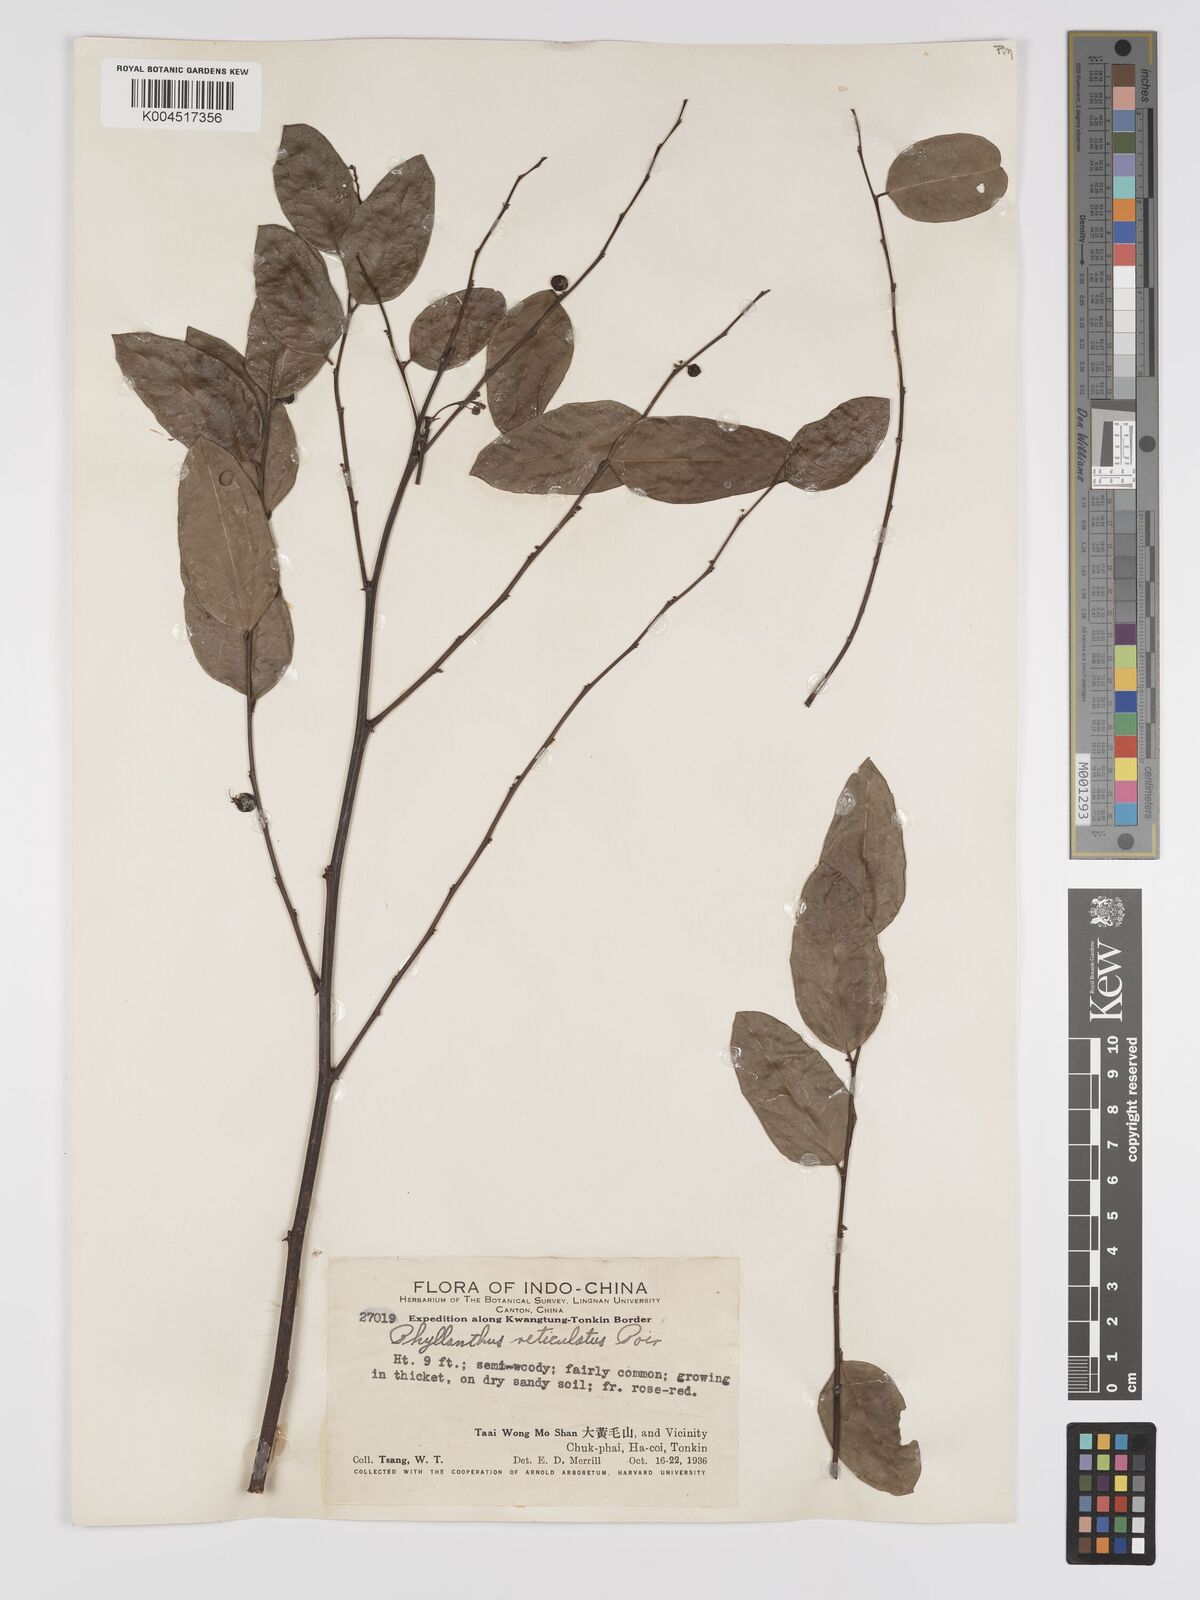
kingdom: Plantae
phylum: Tracheophyta
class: Magnoliopsida
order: Malpighiales
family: Phyllanthaceae
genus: Phyllanthus
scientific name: Phyllanthus reticulatus
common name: Potato bush
